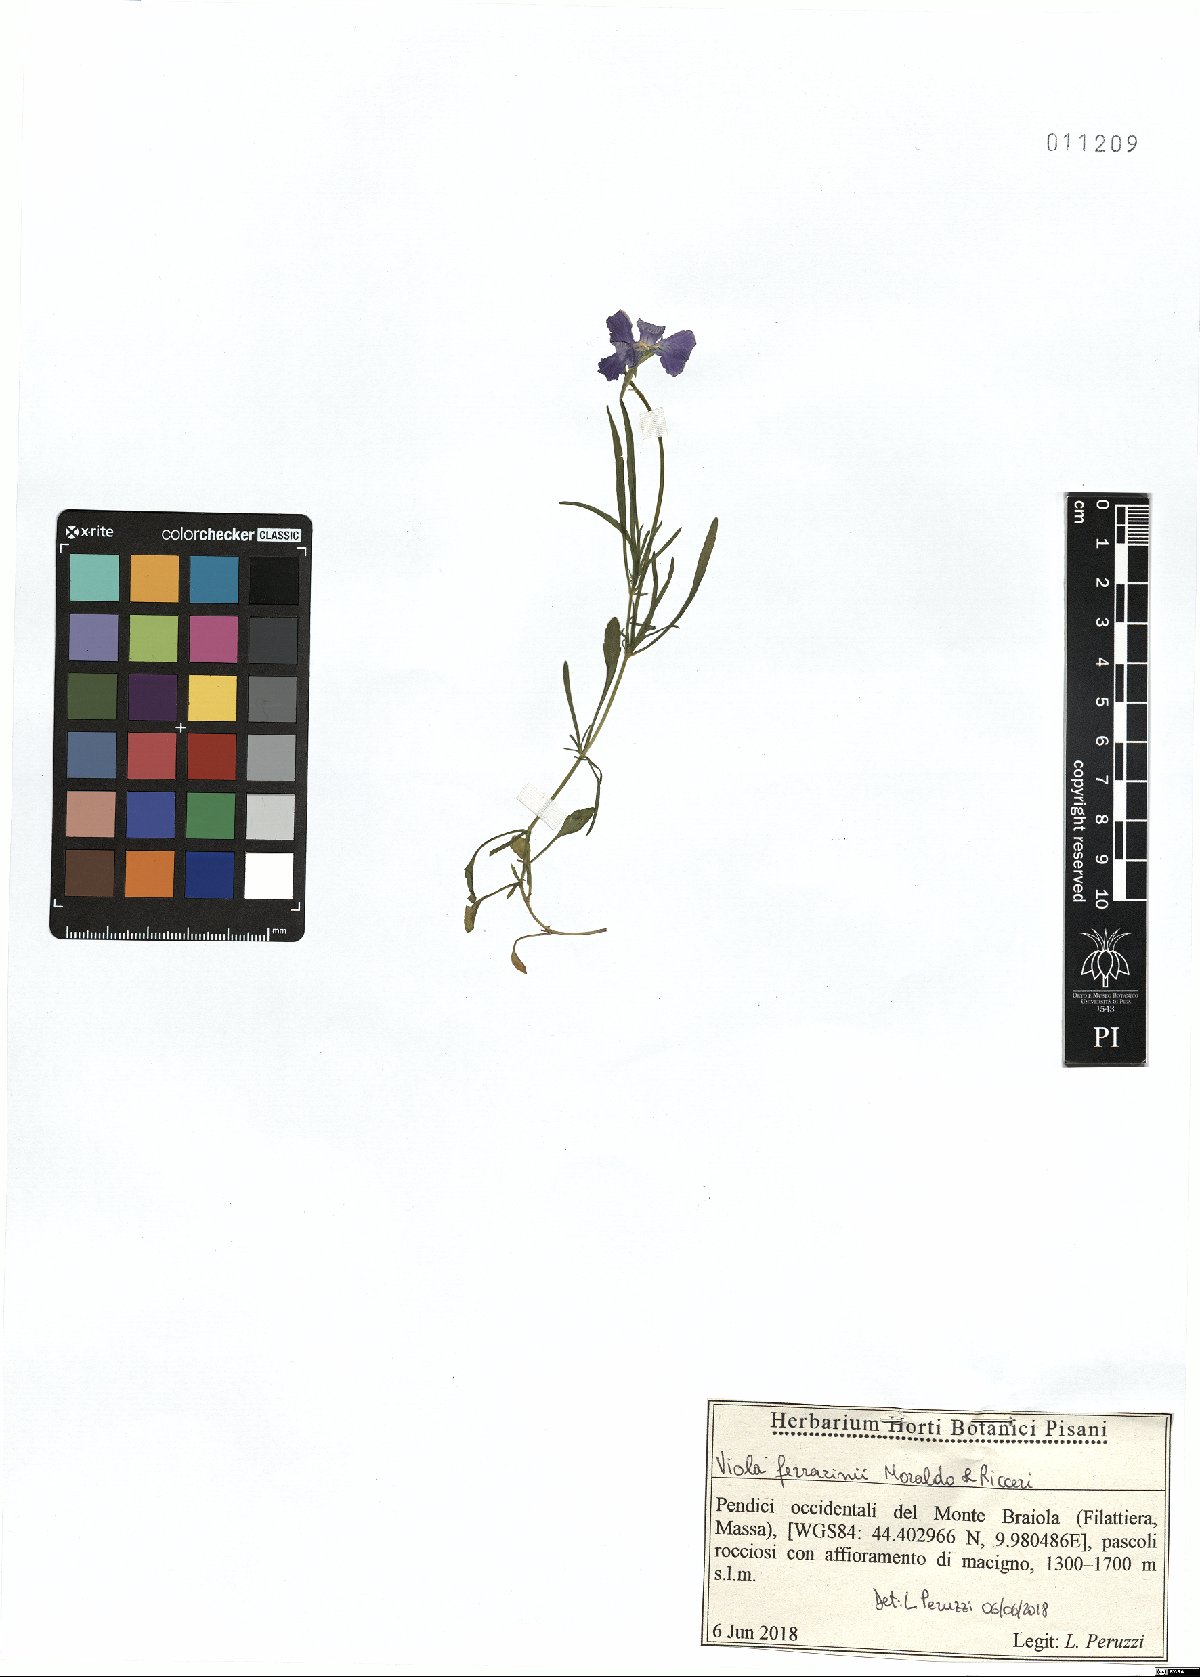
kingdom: Plantae
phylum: Tracheophyta
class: Magnoliopsida
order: Malpighiales
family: Violaceae
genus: Viola
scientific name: Viola ferrarinii
